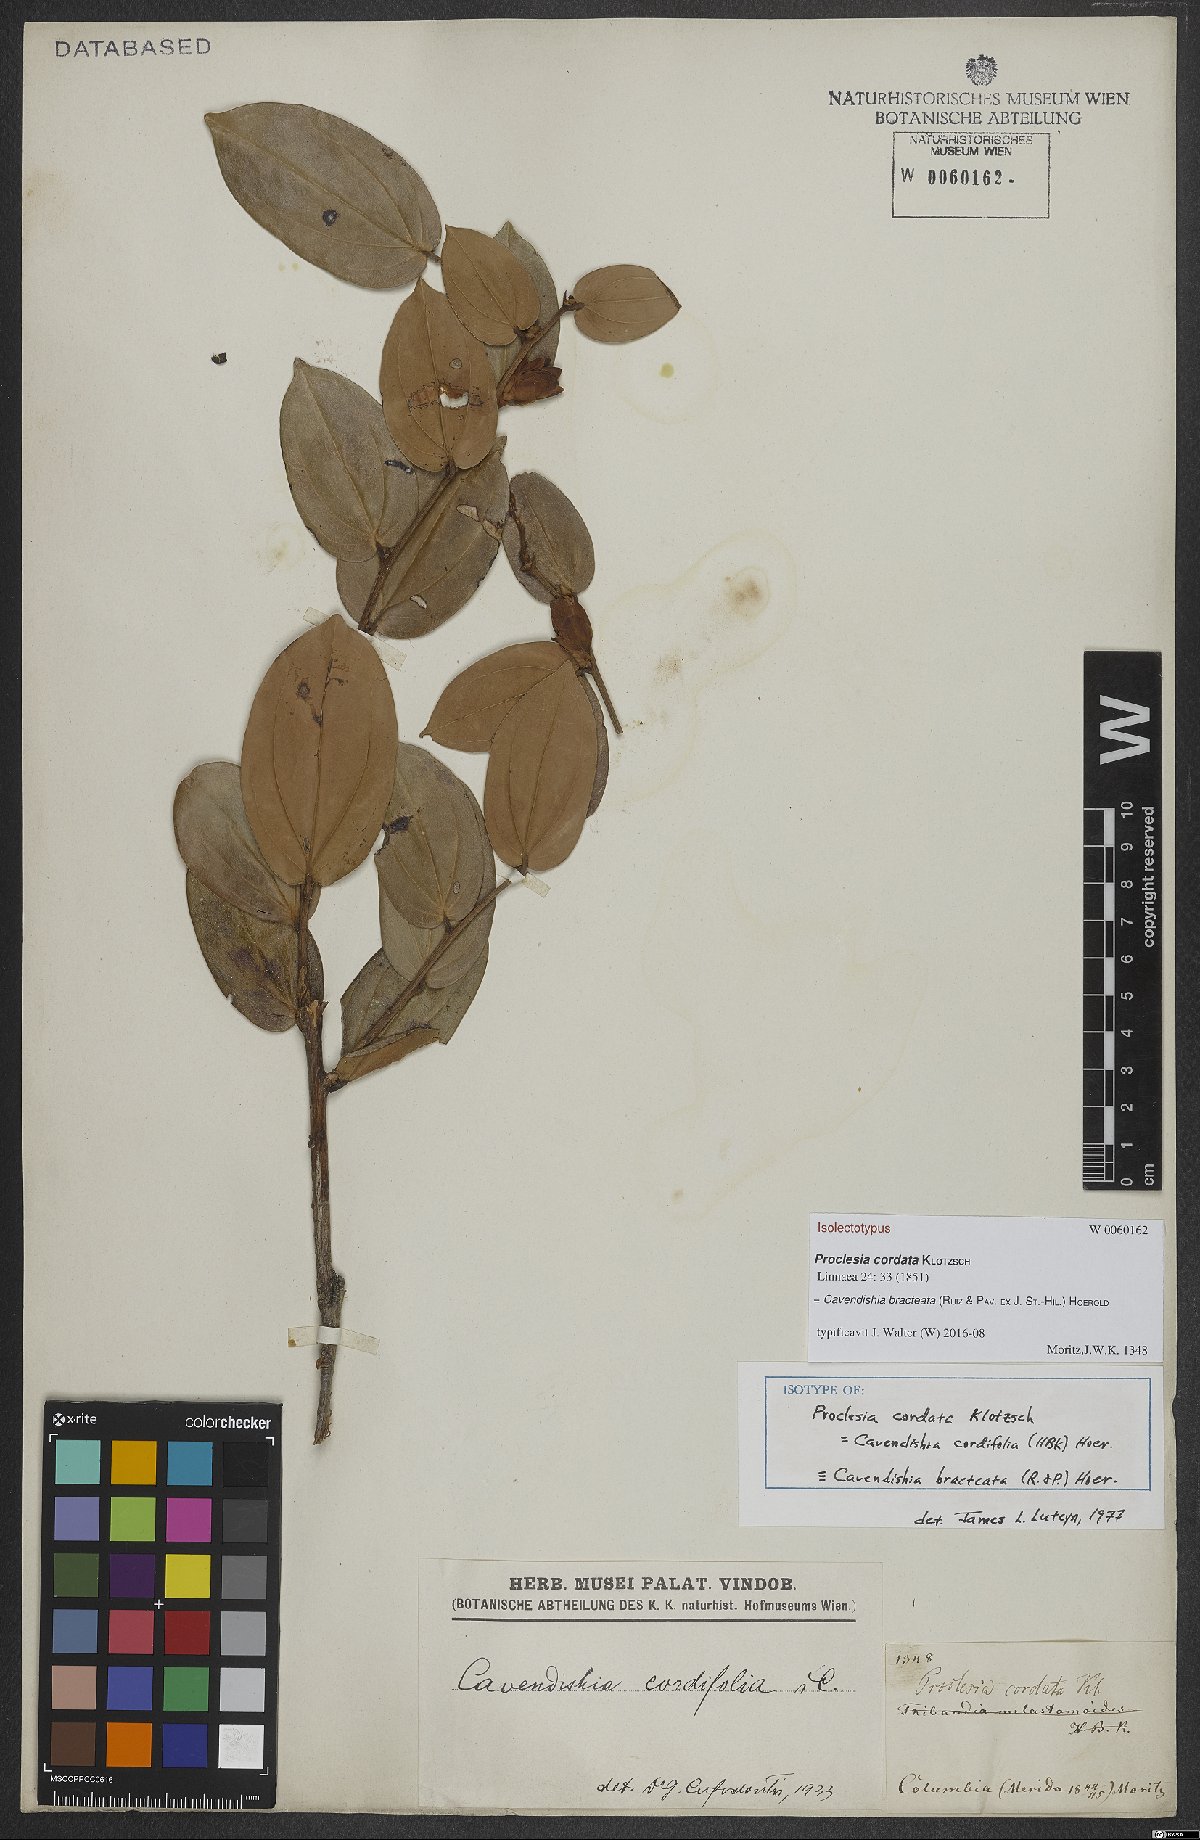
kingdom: Plantae
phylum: Tracheophyta
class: Magnoliopsida
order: Ericales
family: Ericaceae
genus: Cavendishia
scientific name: Cavendishia bracteata
